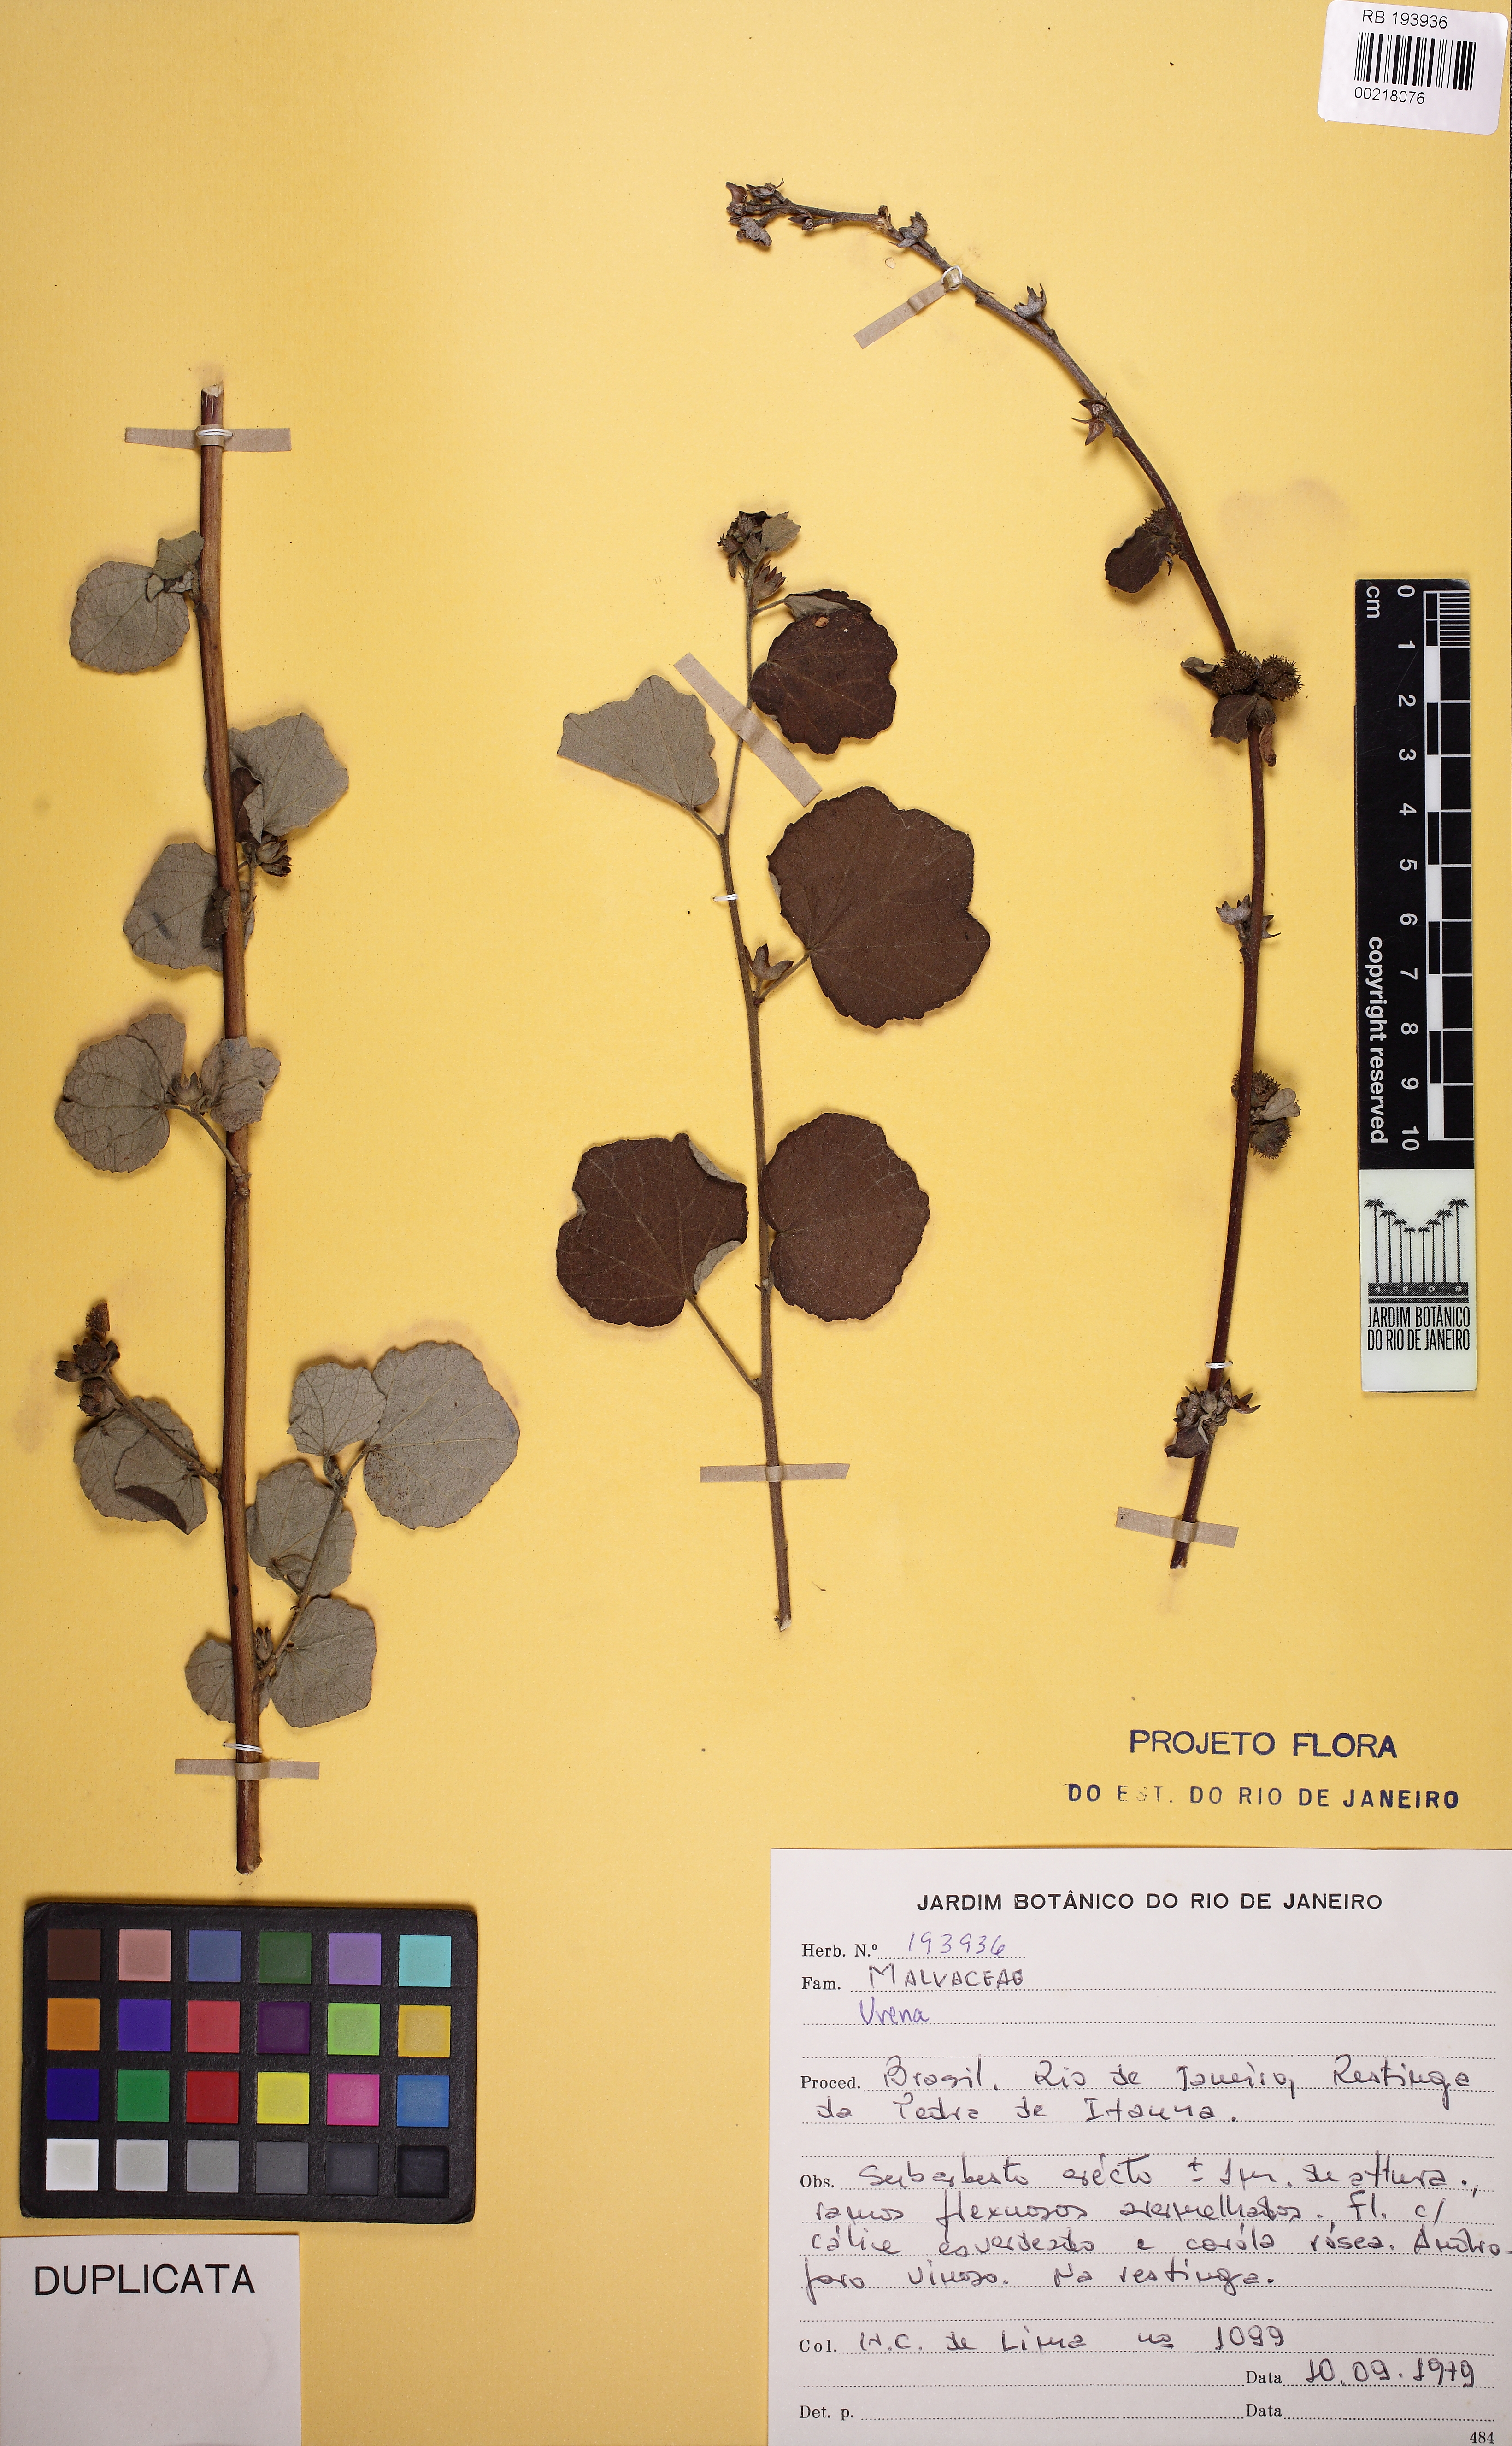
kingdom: Plantae
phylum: Tracheophyta
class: Magnoliopsida
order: Malvales
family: Malvaceae
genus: Urena
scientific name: Urena
